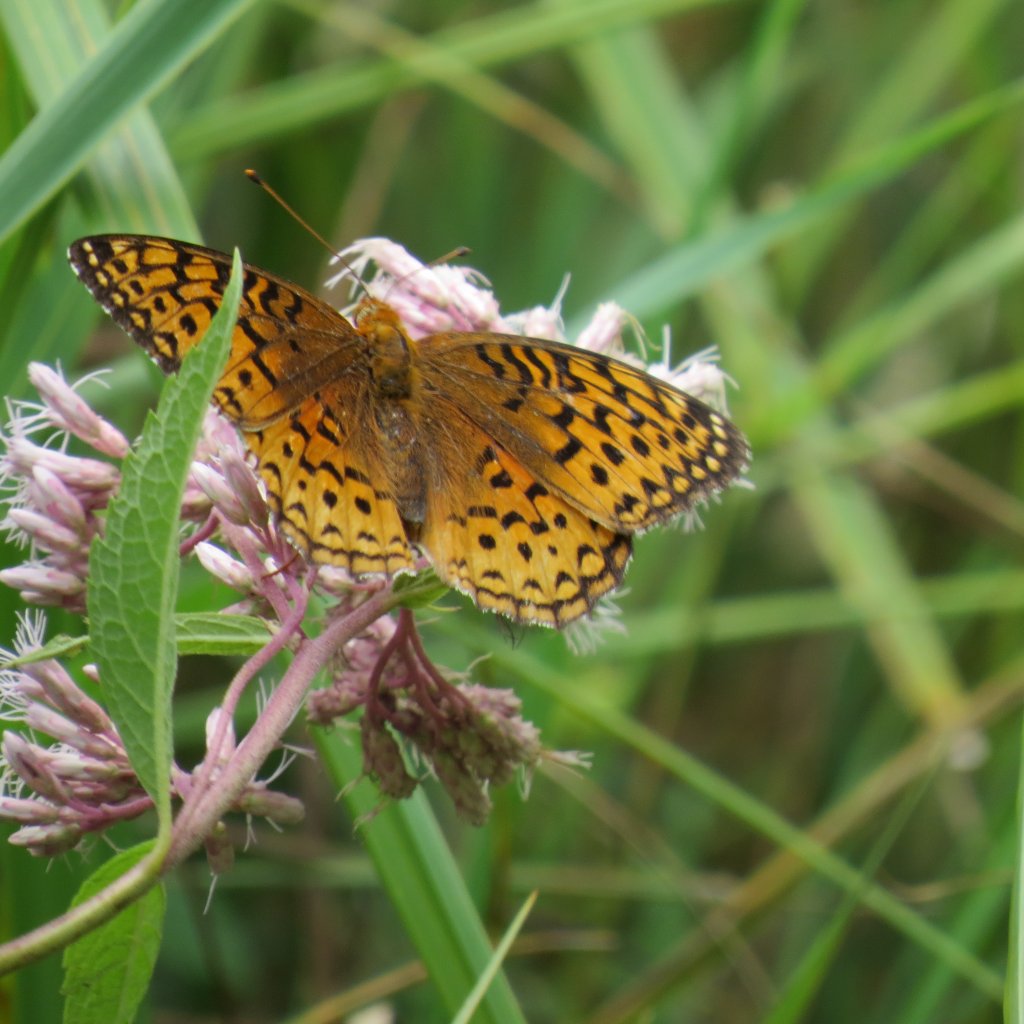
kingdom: Animalia
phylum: Arthropoda
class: Insecta
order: Lepidoptera
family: Nymphalidae
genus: Speyeria
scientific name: Speyeria aphrodite
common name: Aphrodite Fritillary
